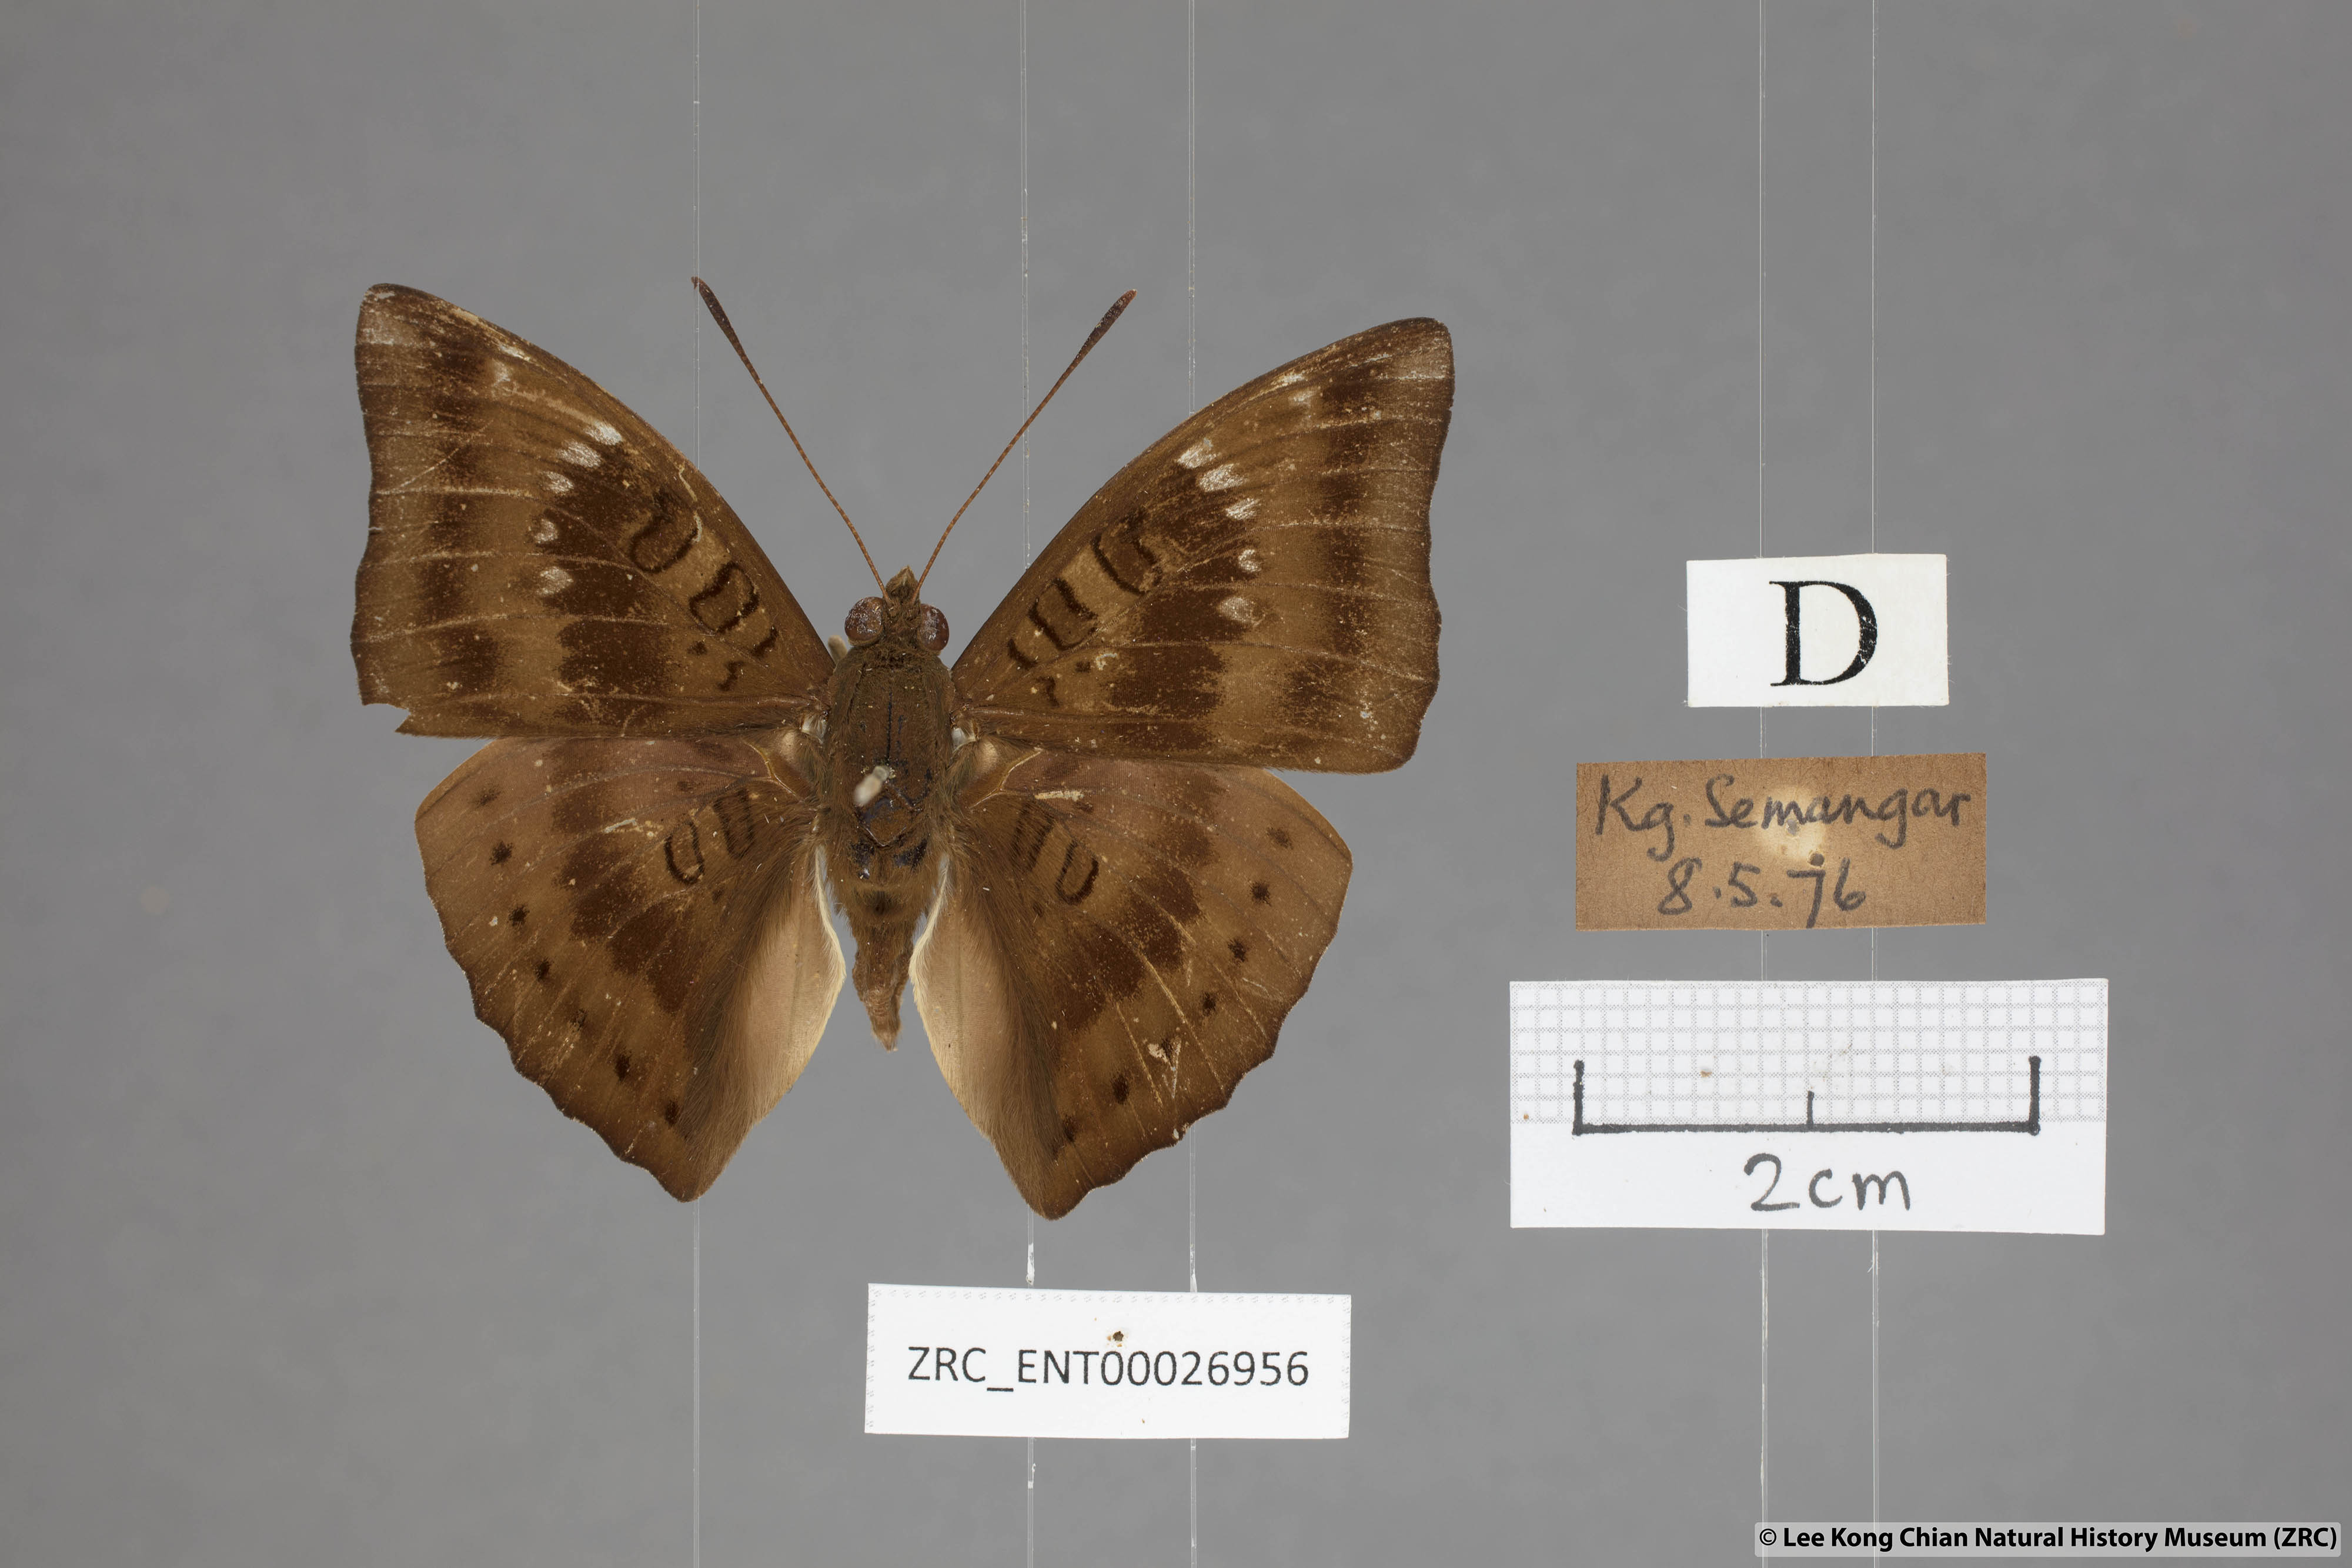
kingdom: Animalia
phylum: Arthropoda
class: Insecta
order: Lepidoptera
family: Nymphalidae
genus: Euthalia
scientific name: Euthalia aconthea
